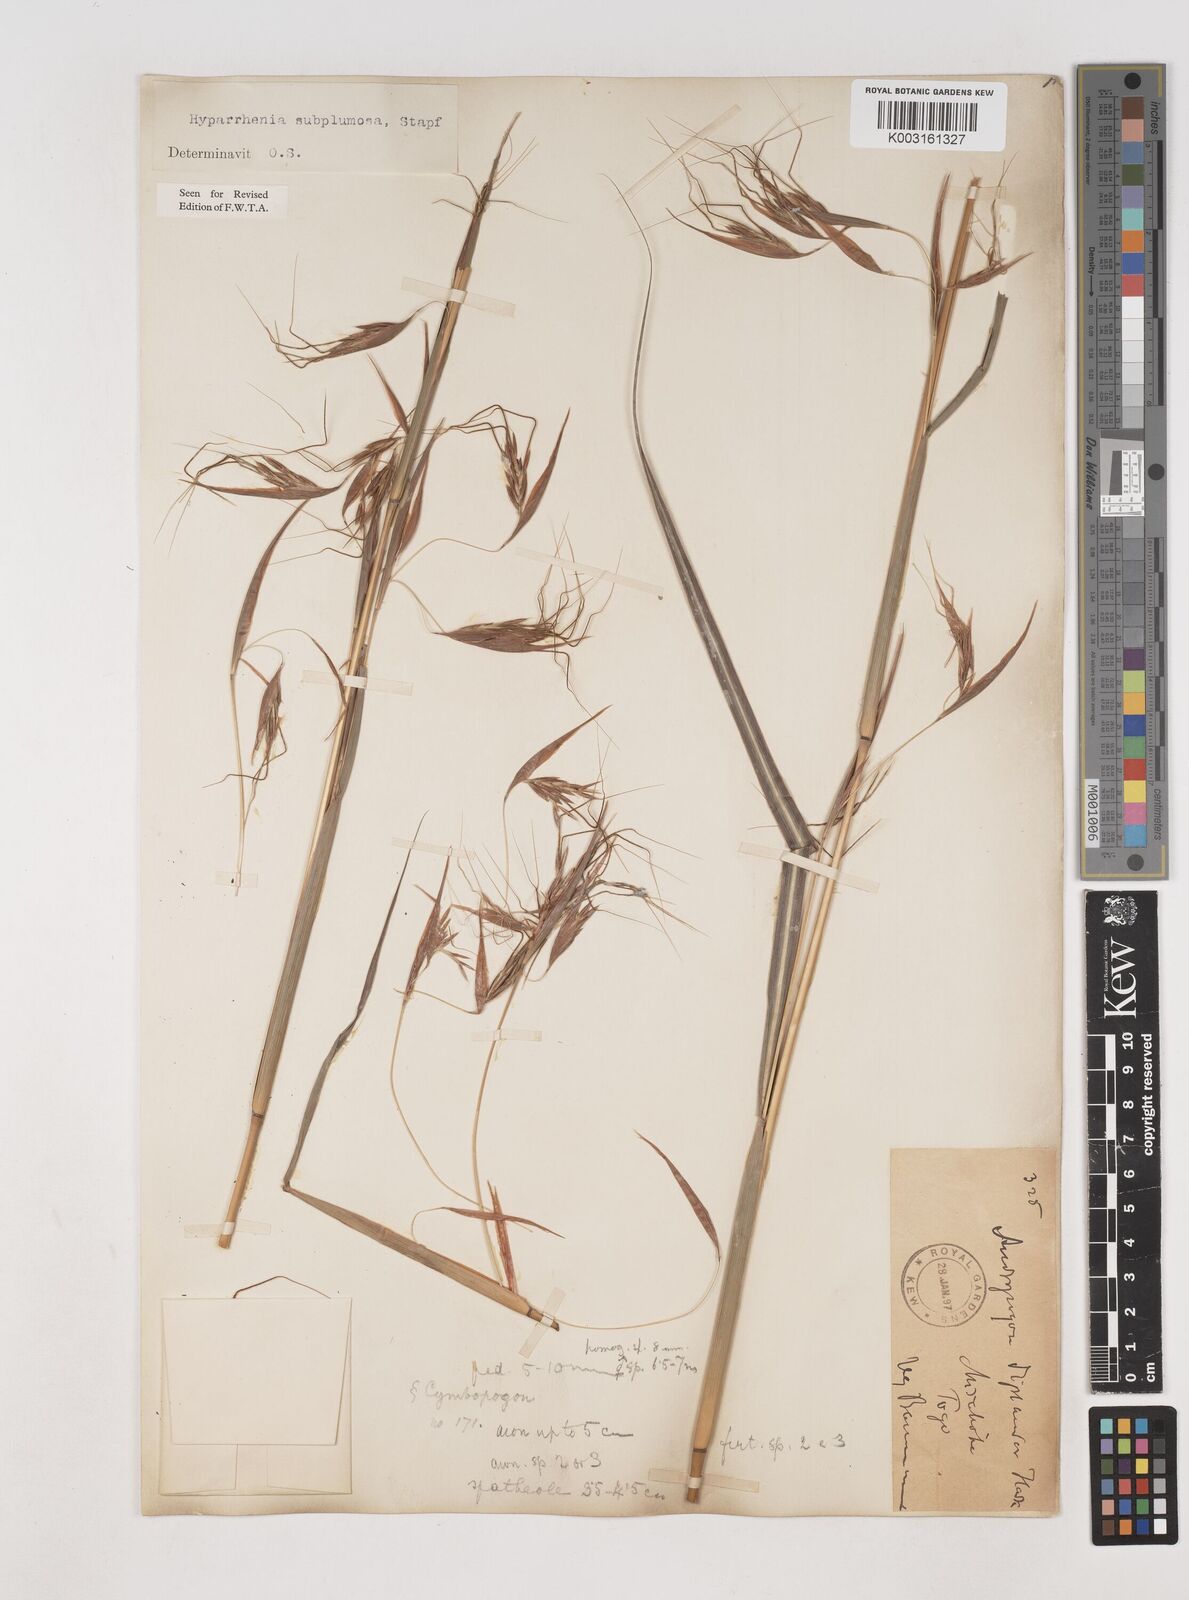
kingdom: Plantae
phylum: Tracheophyta
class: Liliopsida
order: Poales
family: Poaceae
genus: Hyparrhenia
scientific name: Hyparrhenia subplumosa
